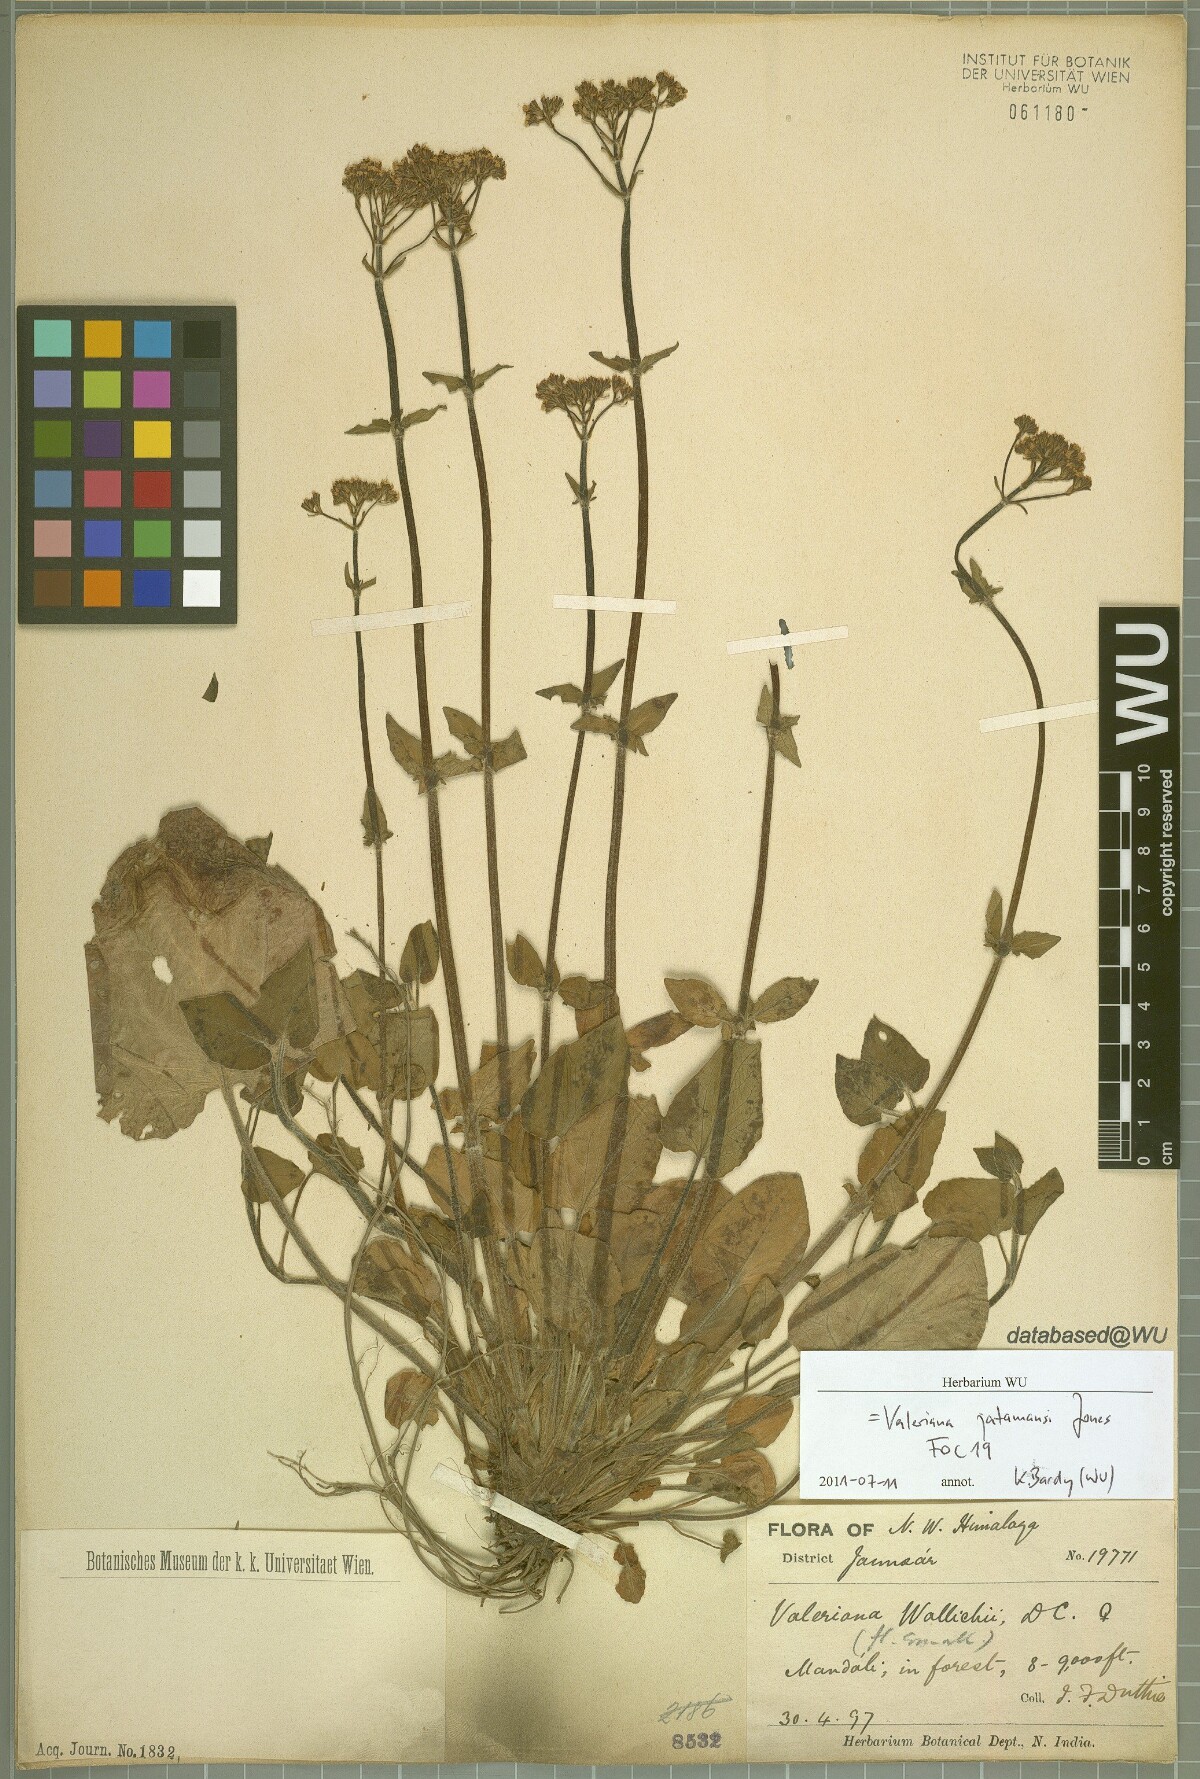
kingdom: Plantae
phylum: Tracheophyta
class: Magnoliopsida
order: Dipsacales
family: Caprifoliaceae
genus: Valeriana
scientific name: Valeriana jatamansi
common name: Indian valerian
